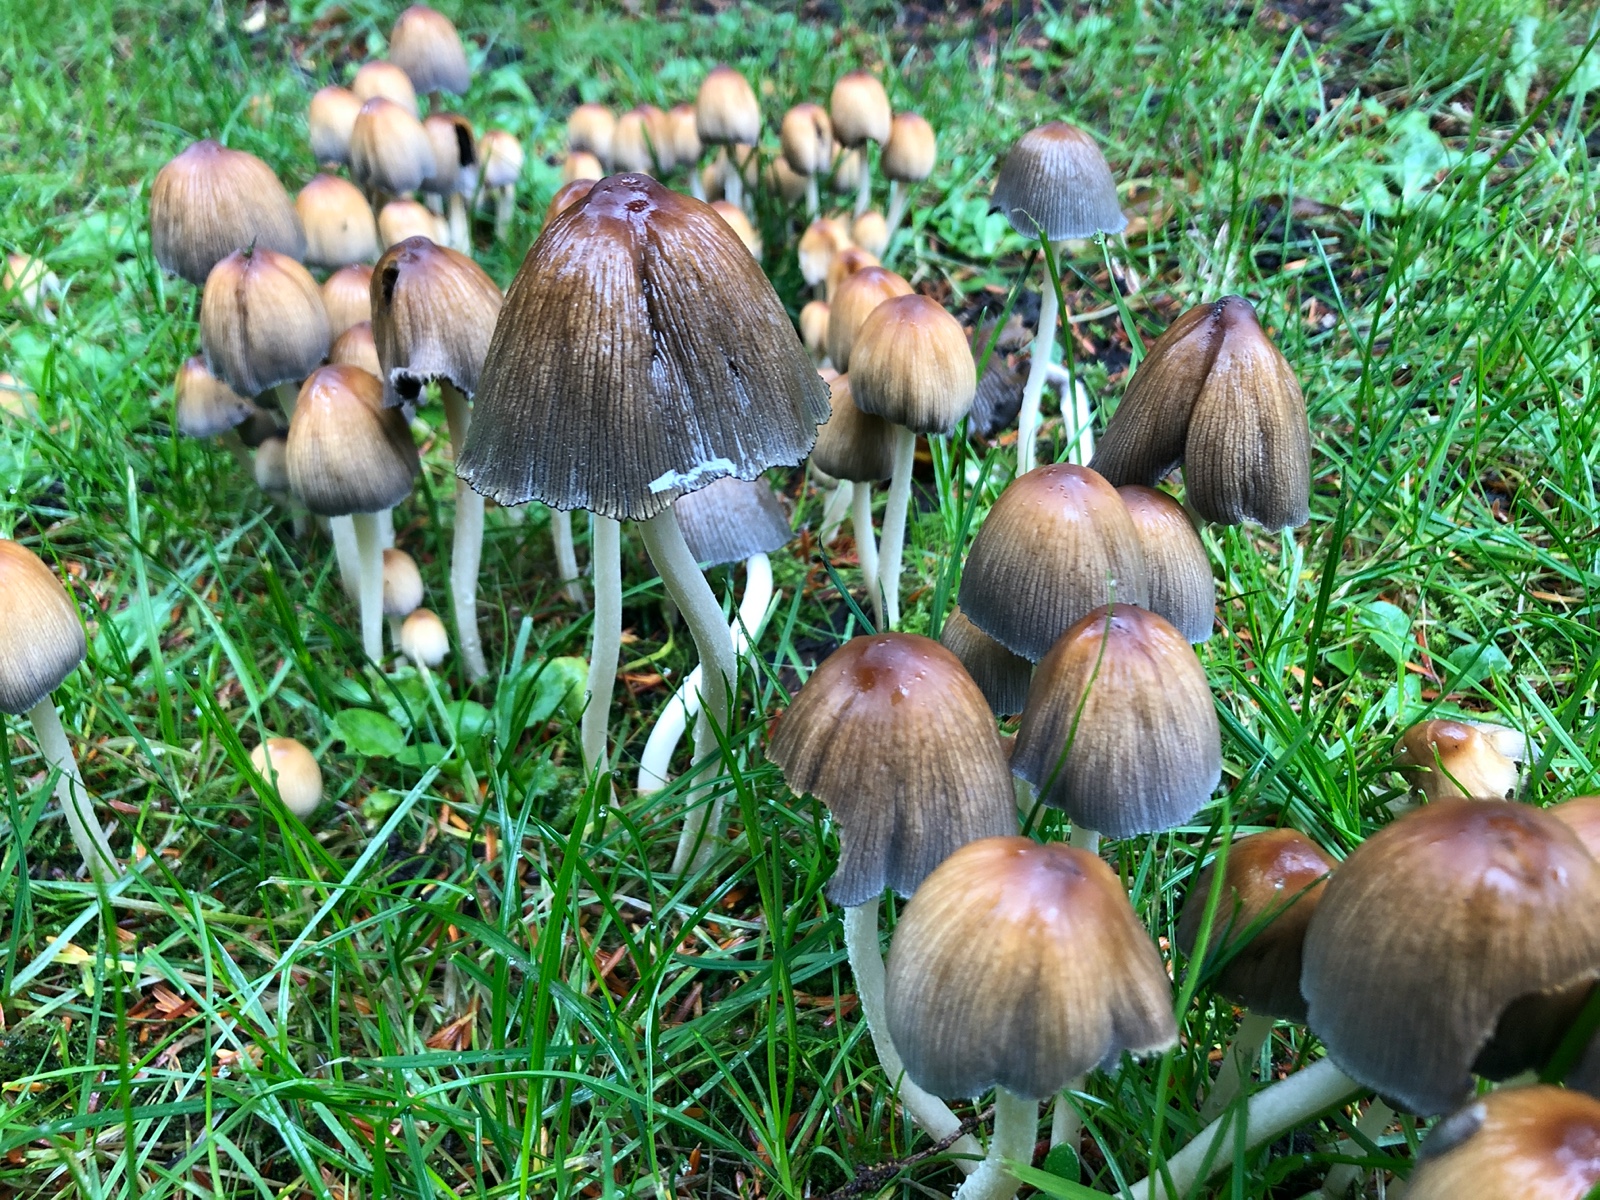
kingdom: Fungi
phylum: Basidiomycota
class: Agaricomycetes
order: Agaricales
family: Psathyrellaceae
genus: Coprinellus
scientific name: Coprinellus micaceus
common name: glimmer-blækhat
